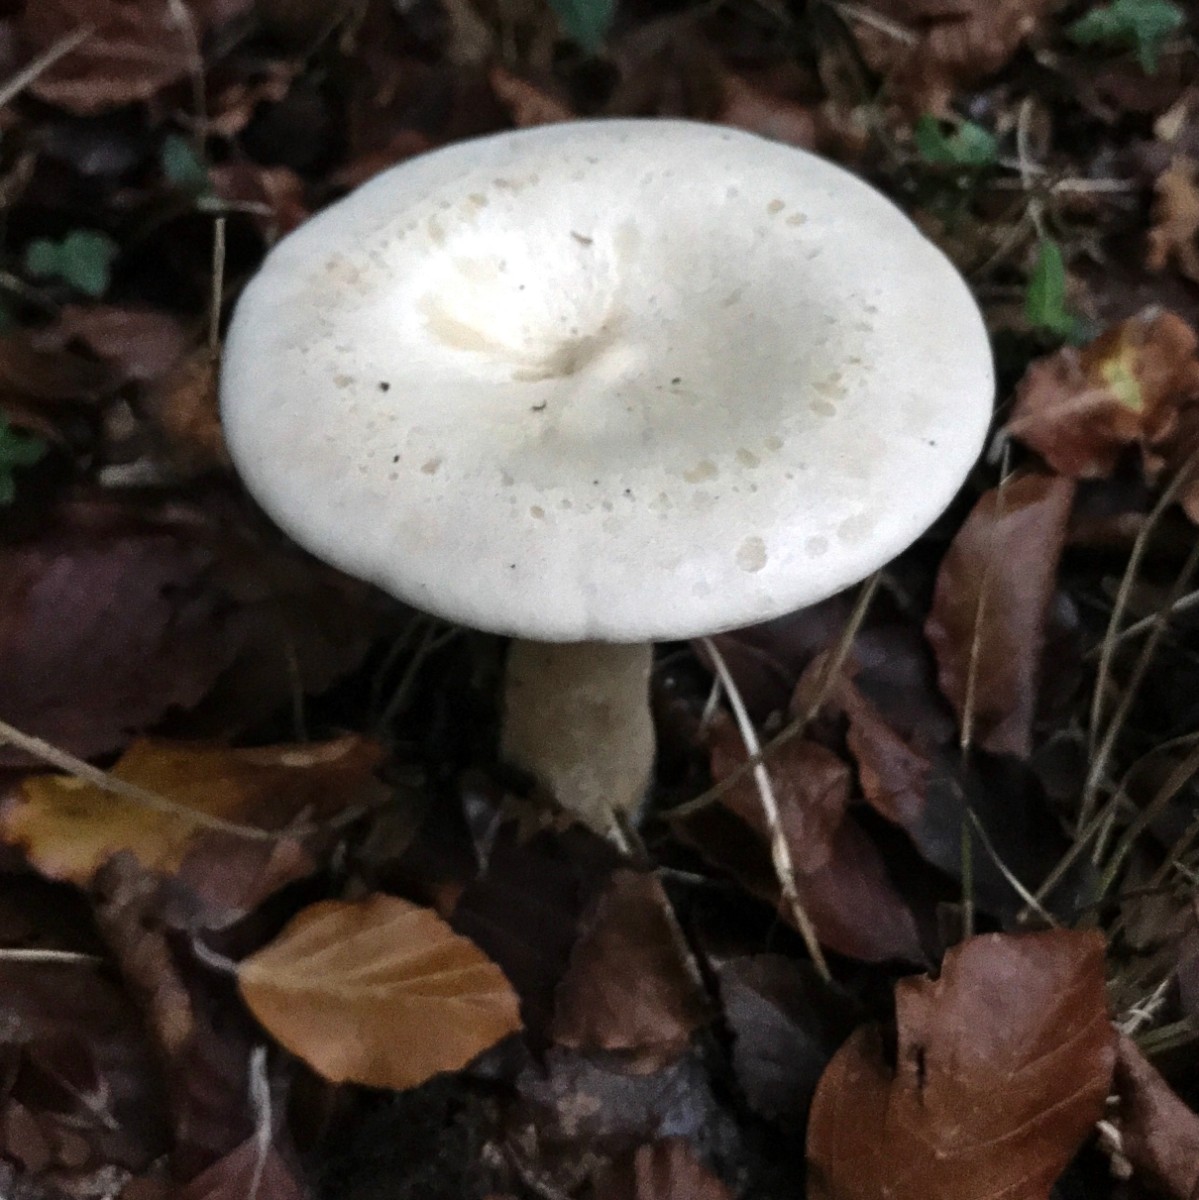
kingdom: Fungi
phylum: Basidiomycota
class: Agaricomycetes
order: Agaricales
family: Tricholomataceae
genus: Infundibulicybe
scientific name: Infundibulicybe geotropa
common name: stor tragthat
